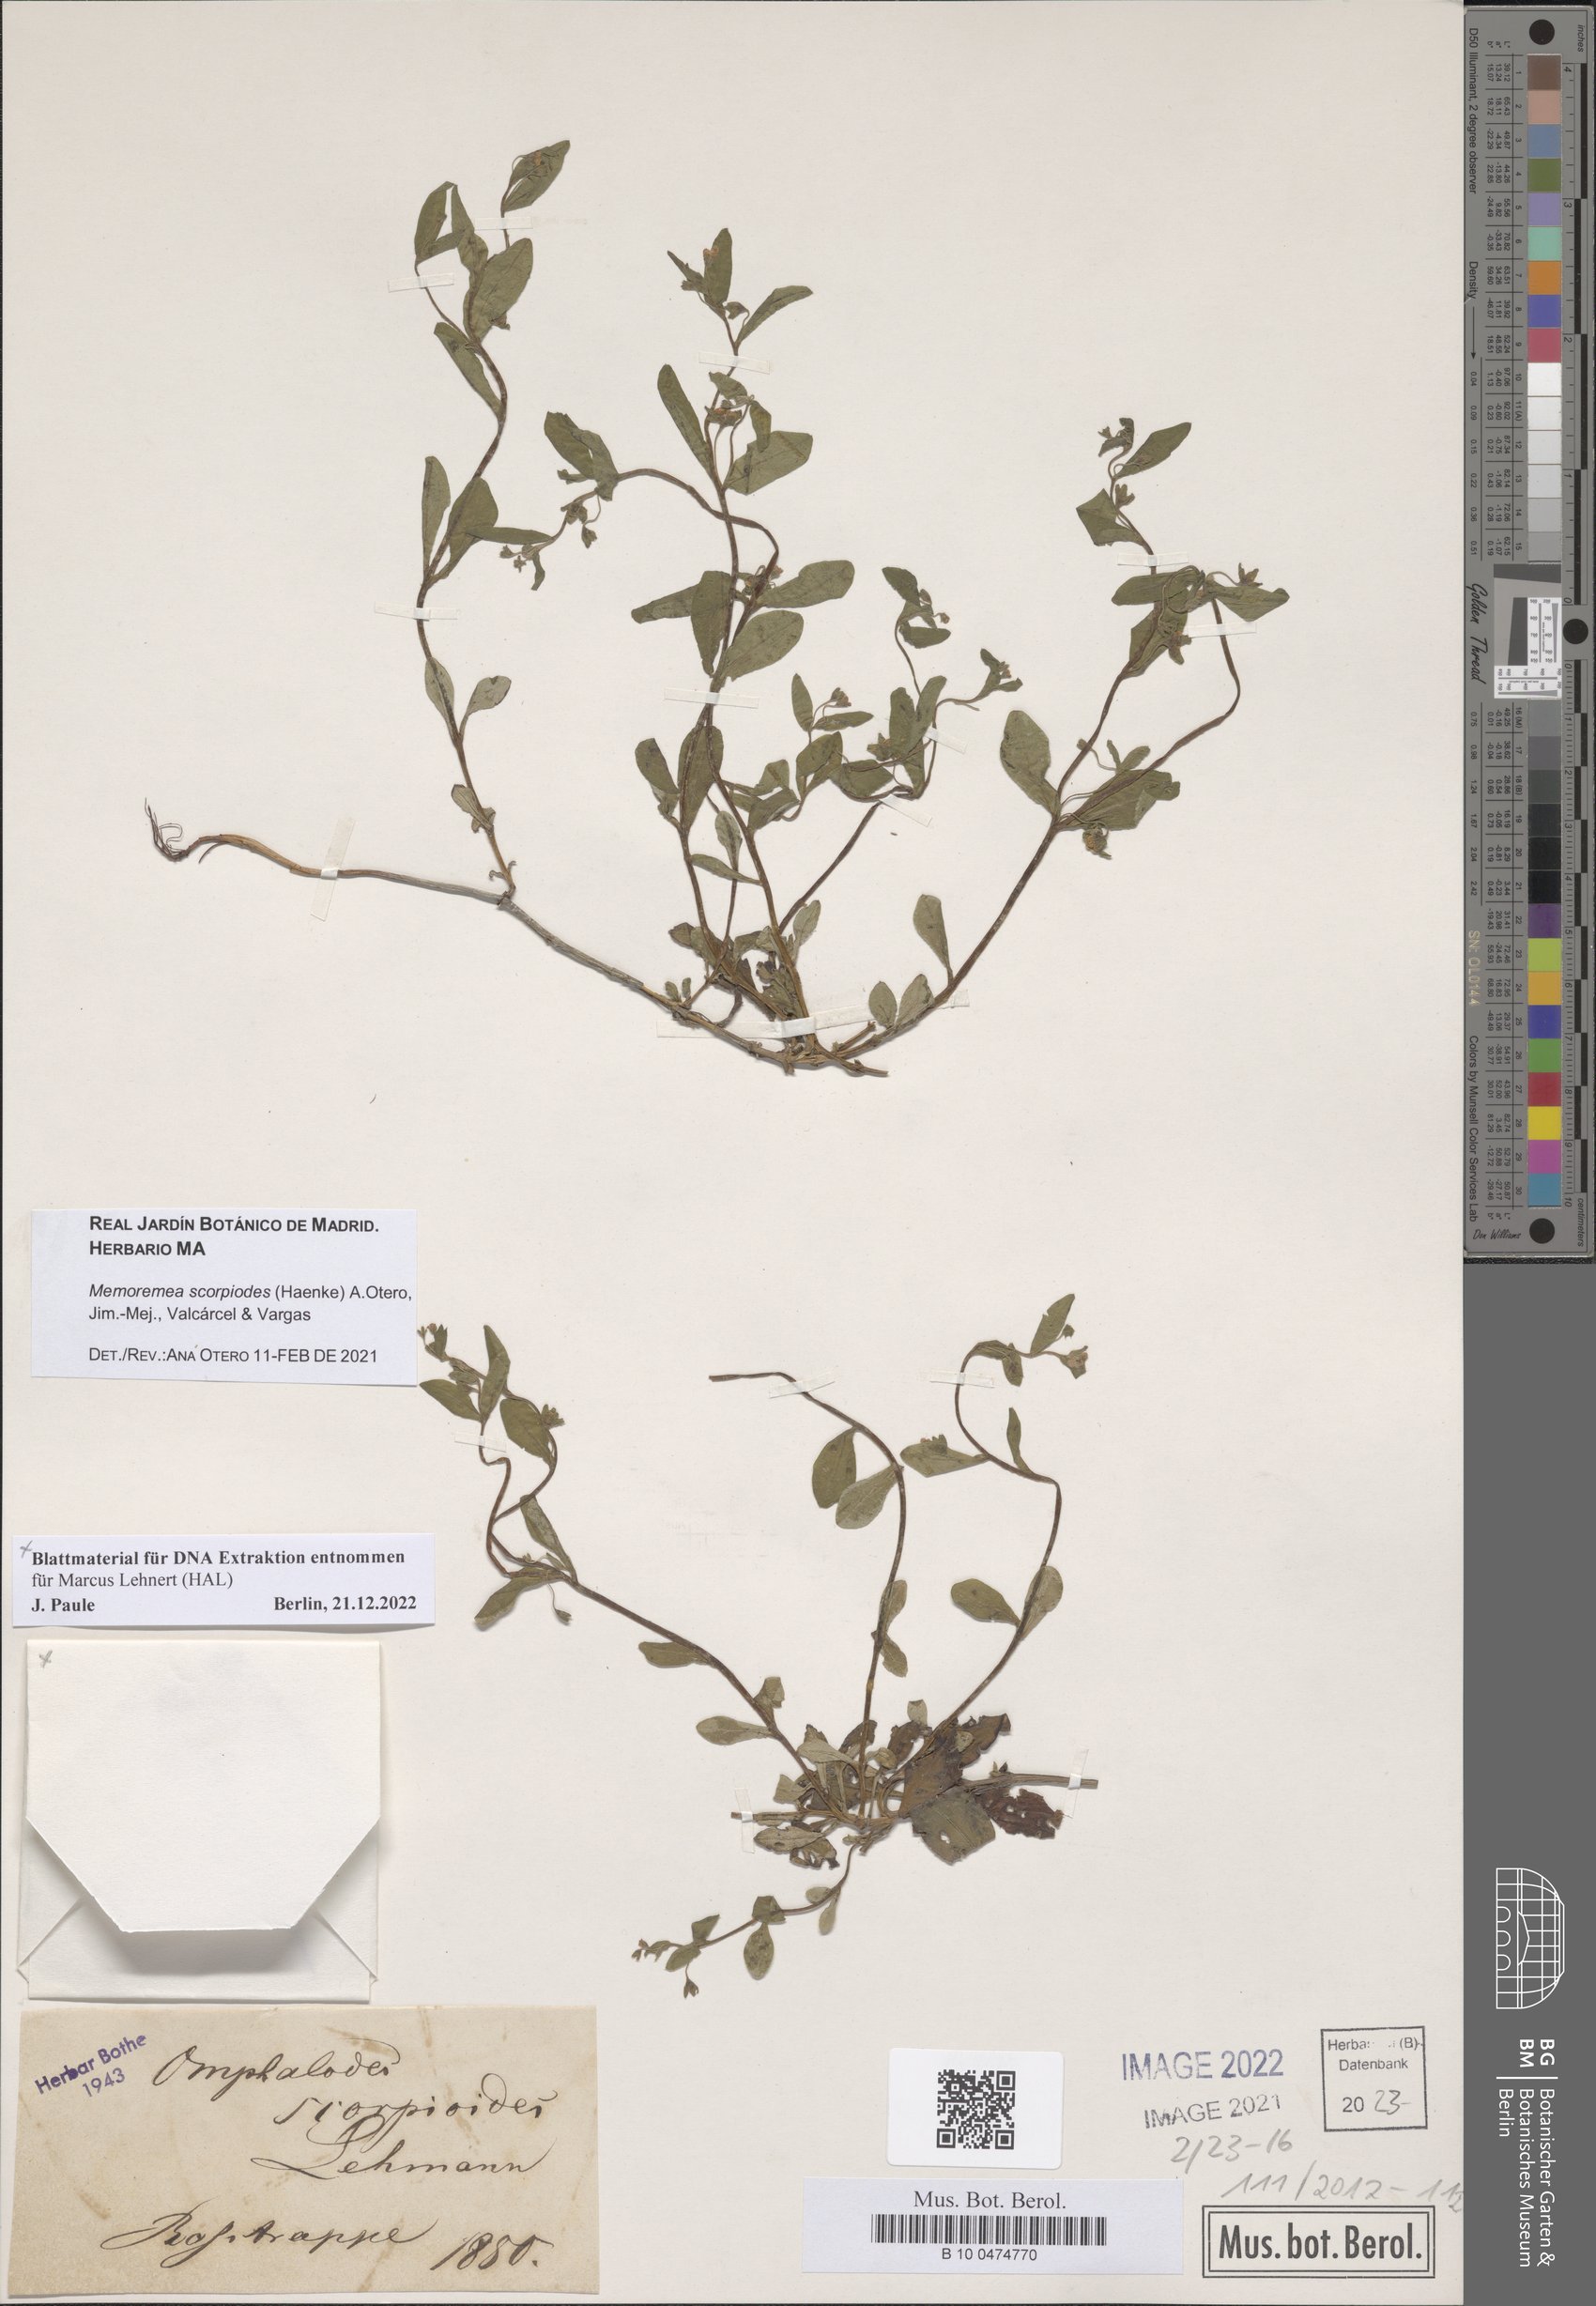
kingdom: Plantae
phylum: Tracheophyta
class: Magnoliopsida
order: Boraginales
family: Boraginaceae
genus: Memoremea
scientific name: Memoremea scorpioides
